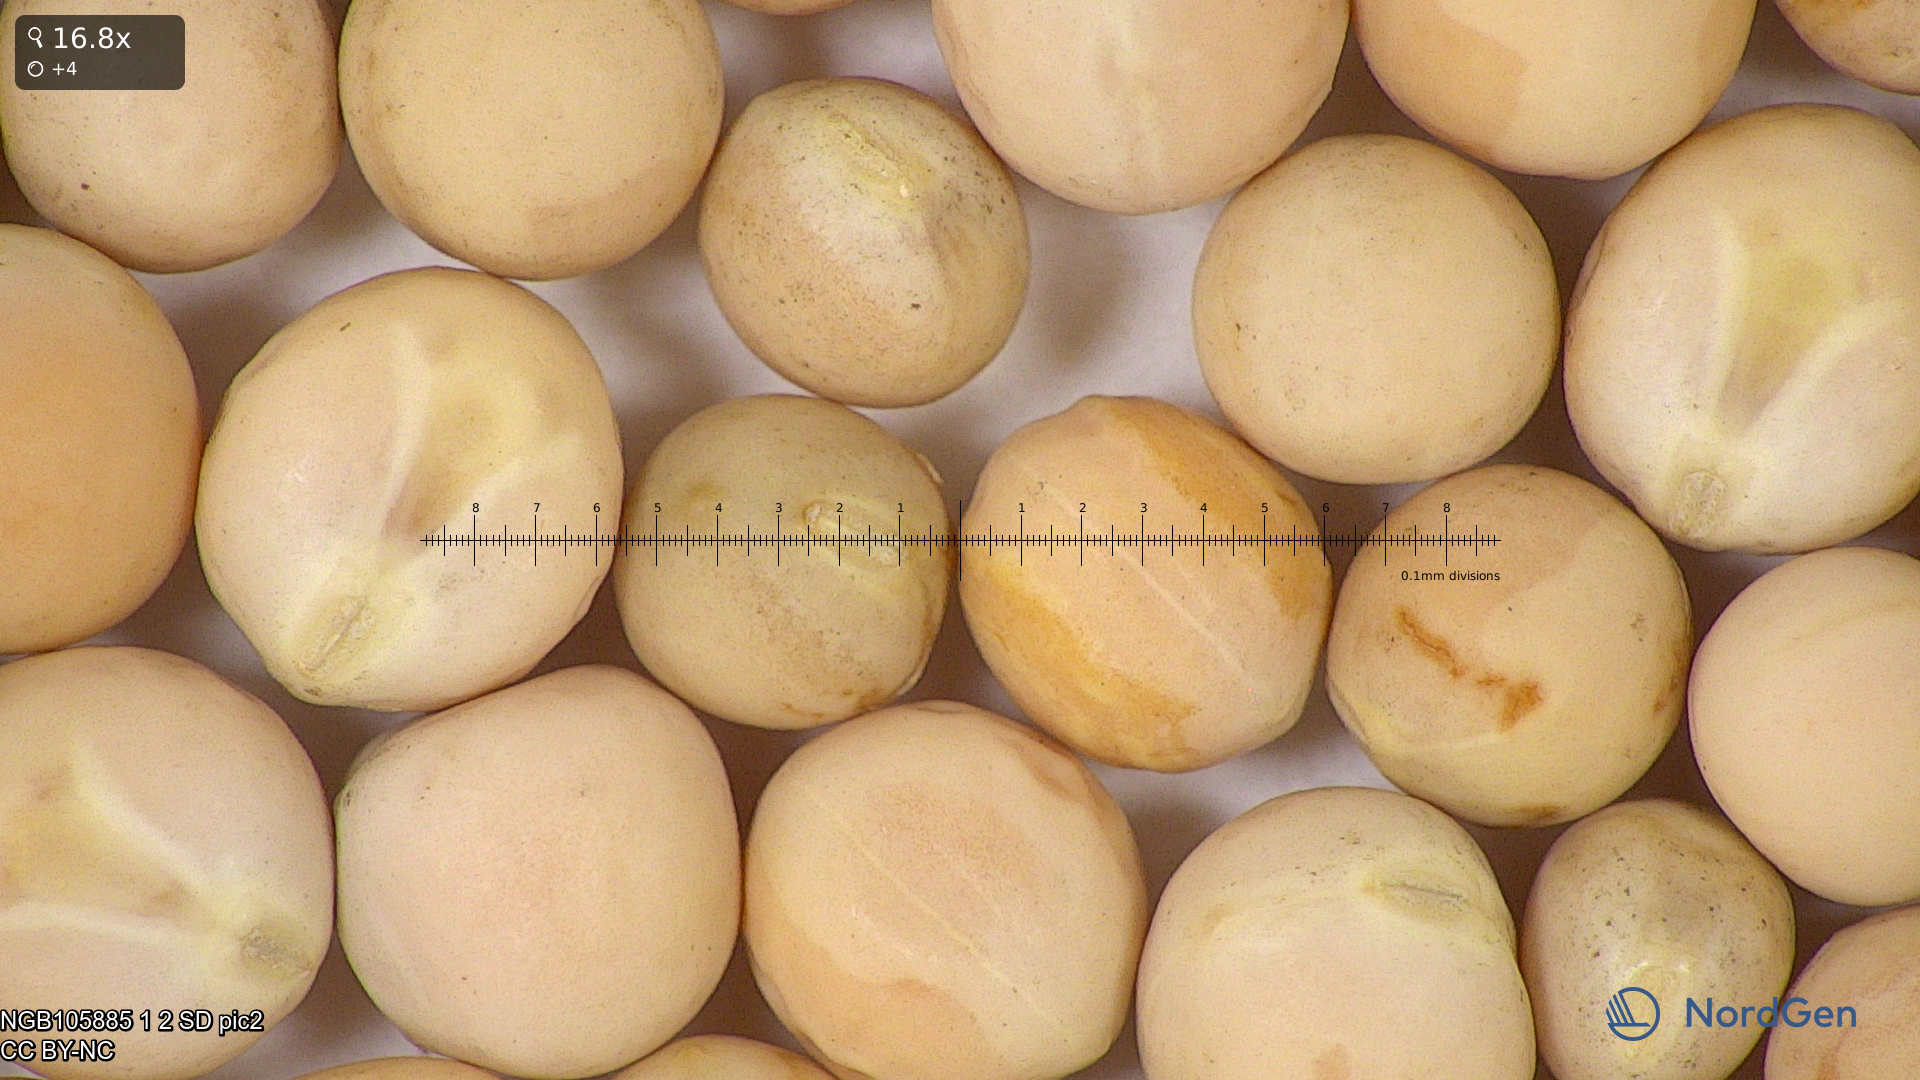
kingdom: Plantae
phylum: Tracheophyta
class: Magnoliopsida
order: Fabales
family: Fabaceae
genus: Lathyrus
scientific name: Lathyrus oleraceus
